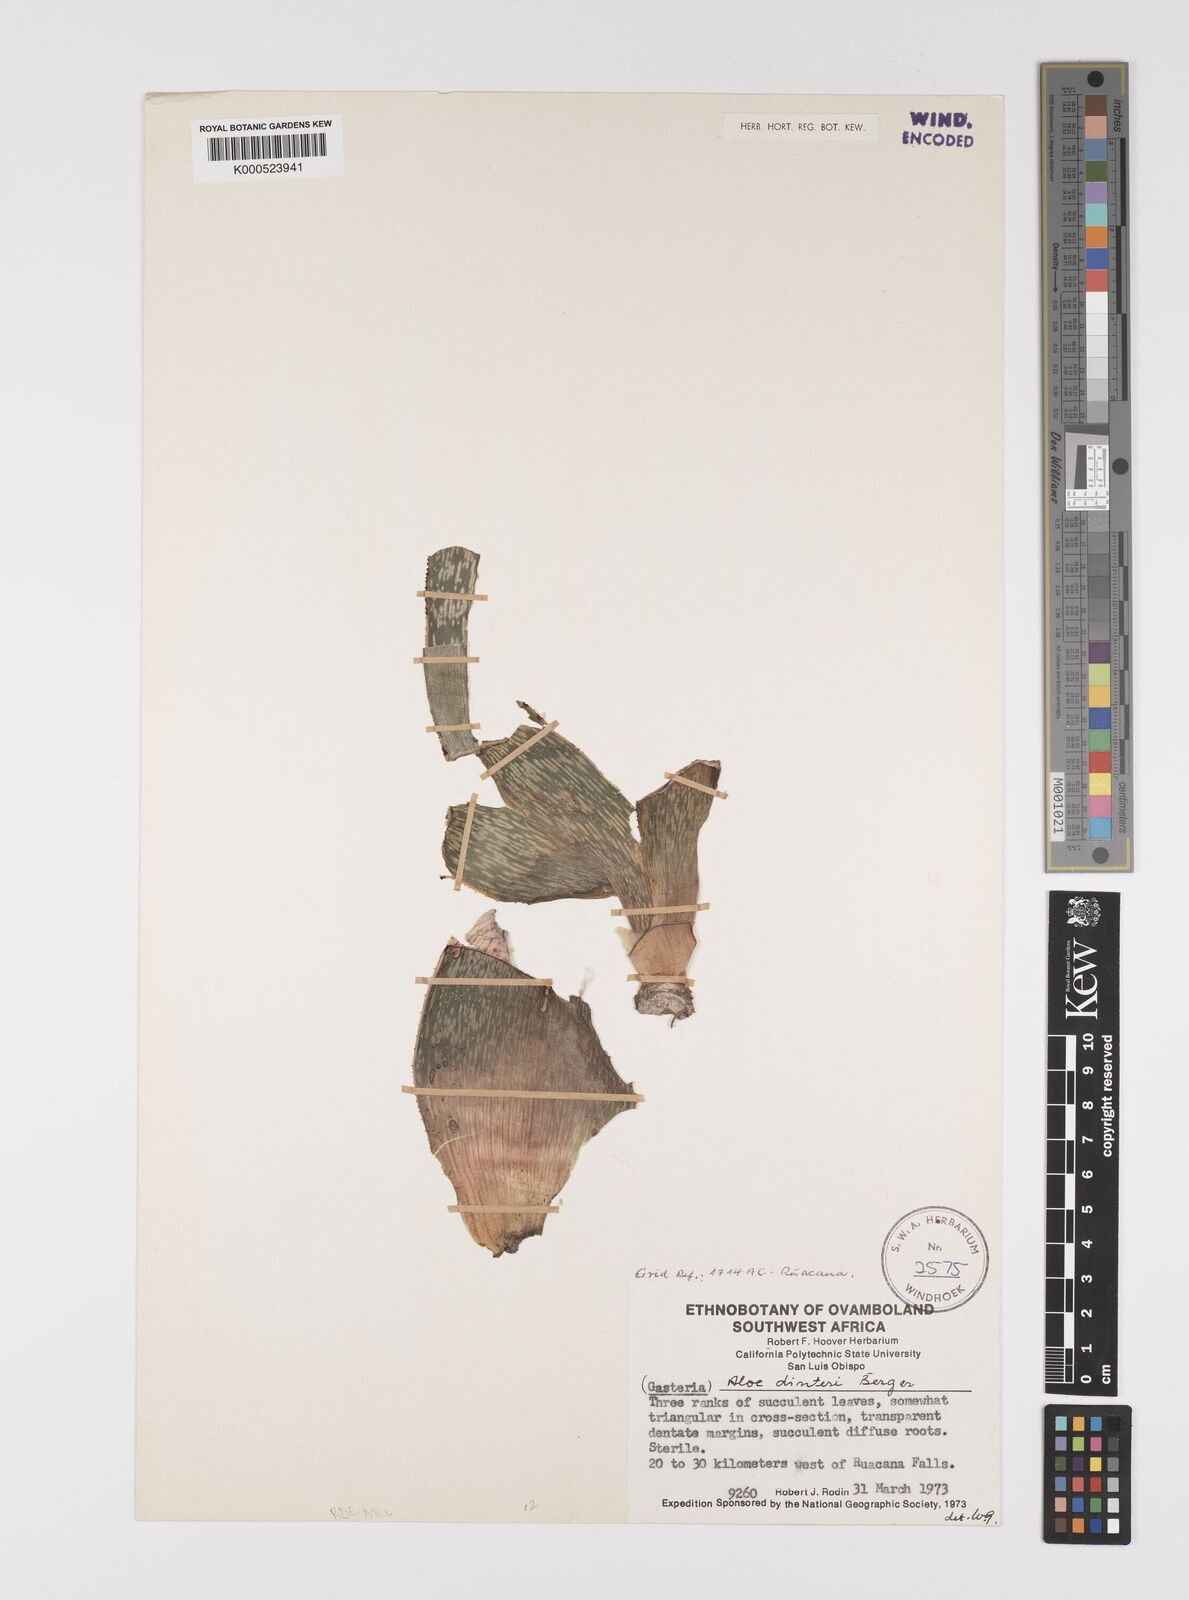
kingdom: Plantae
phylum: Tracheophyta
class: Liliopsida
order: Asparagales
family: Asphodelaceae
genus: Gonialoe
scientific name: Gonialoe dinteri
